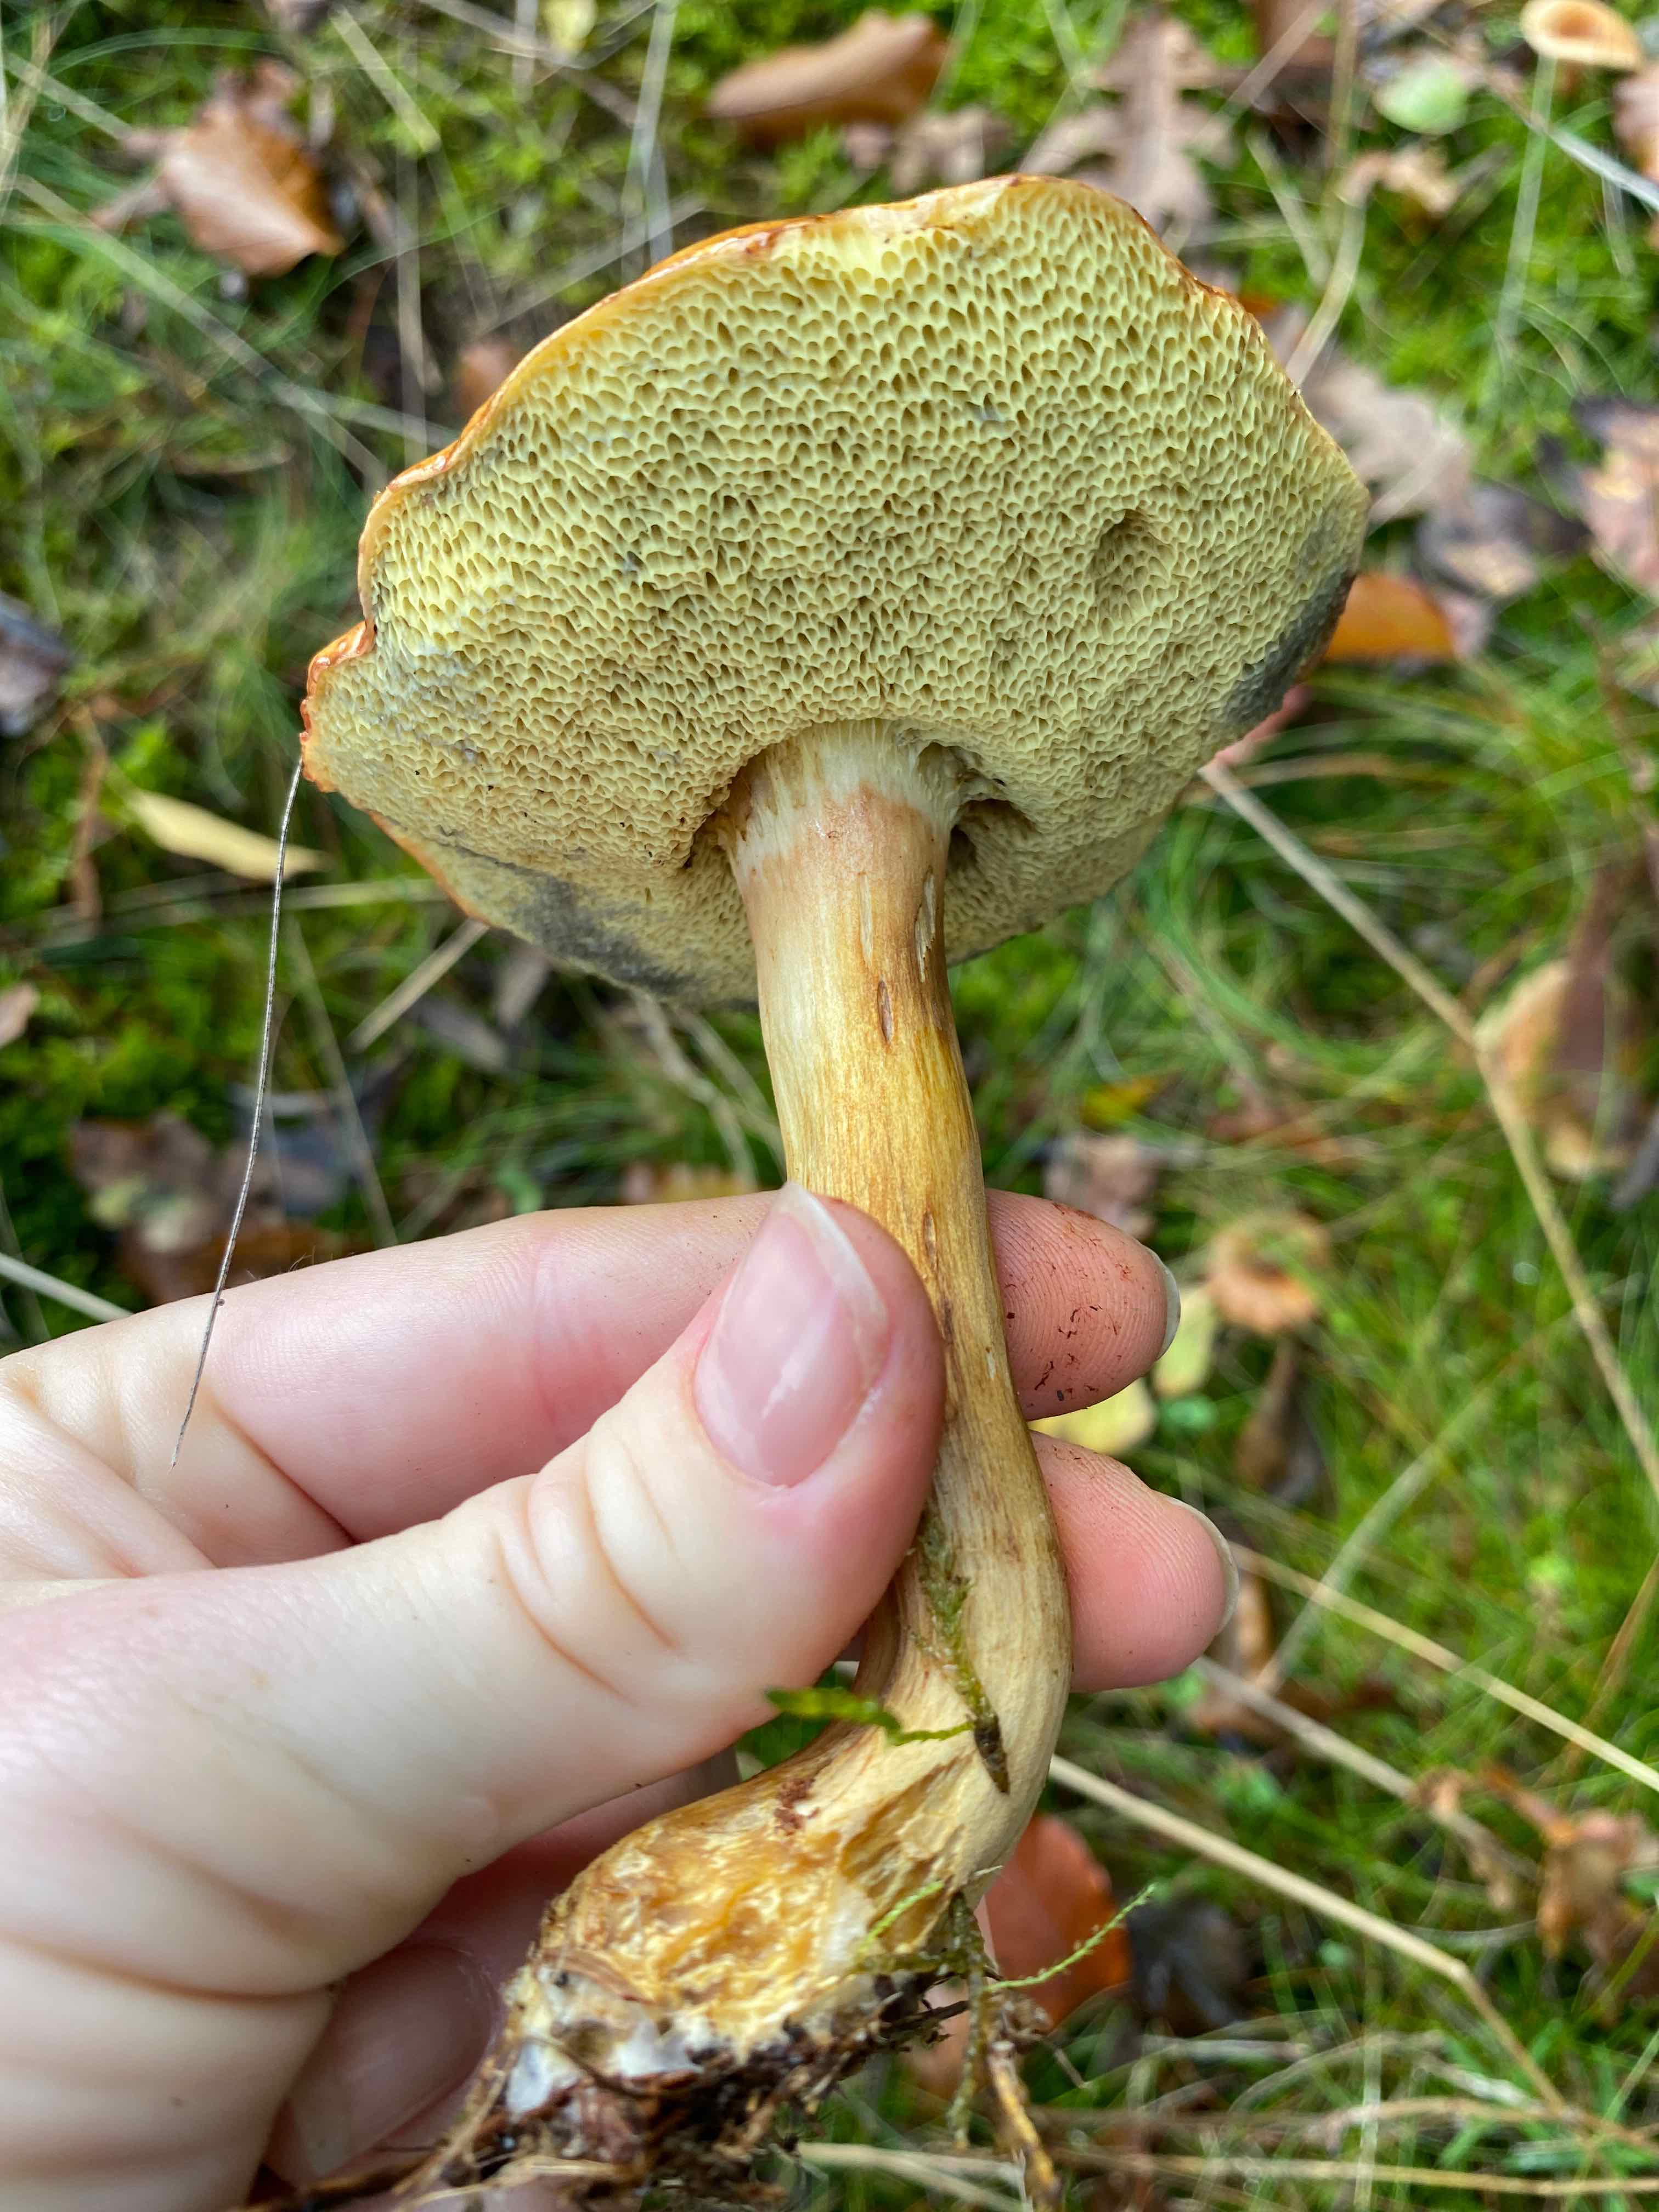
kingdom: Fungi
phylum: Basidiomycota
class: Agaricomycetes
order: Boletales
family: Boletaceae
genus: Imleria
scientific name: Imleria badia
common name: brunstokket rørhat
